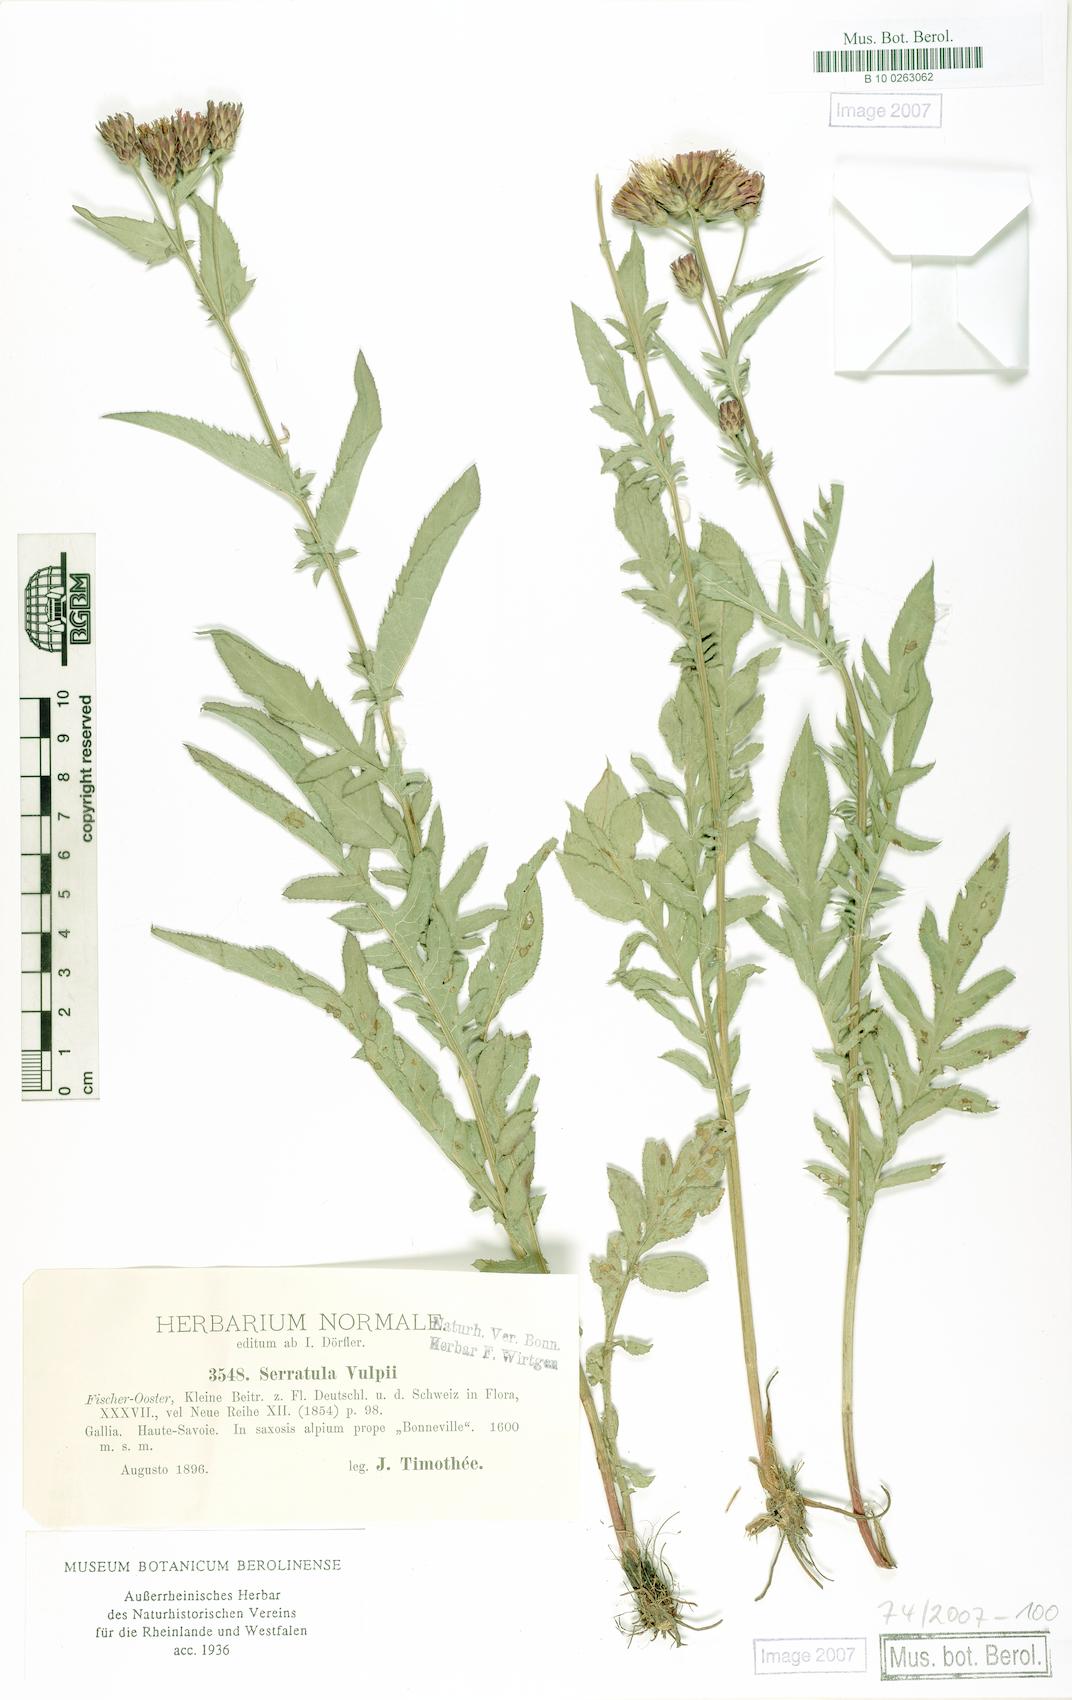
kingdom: Plantae
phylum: Tracheophyta
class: Magnoliopsida
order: Asterales
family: Asteraceae
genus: Serratula
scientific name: Serratula tinctoria
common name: Saw-wort
